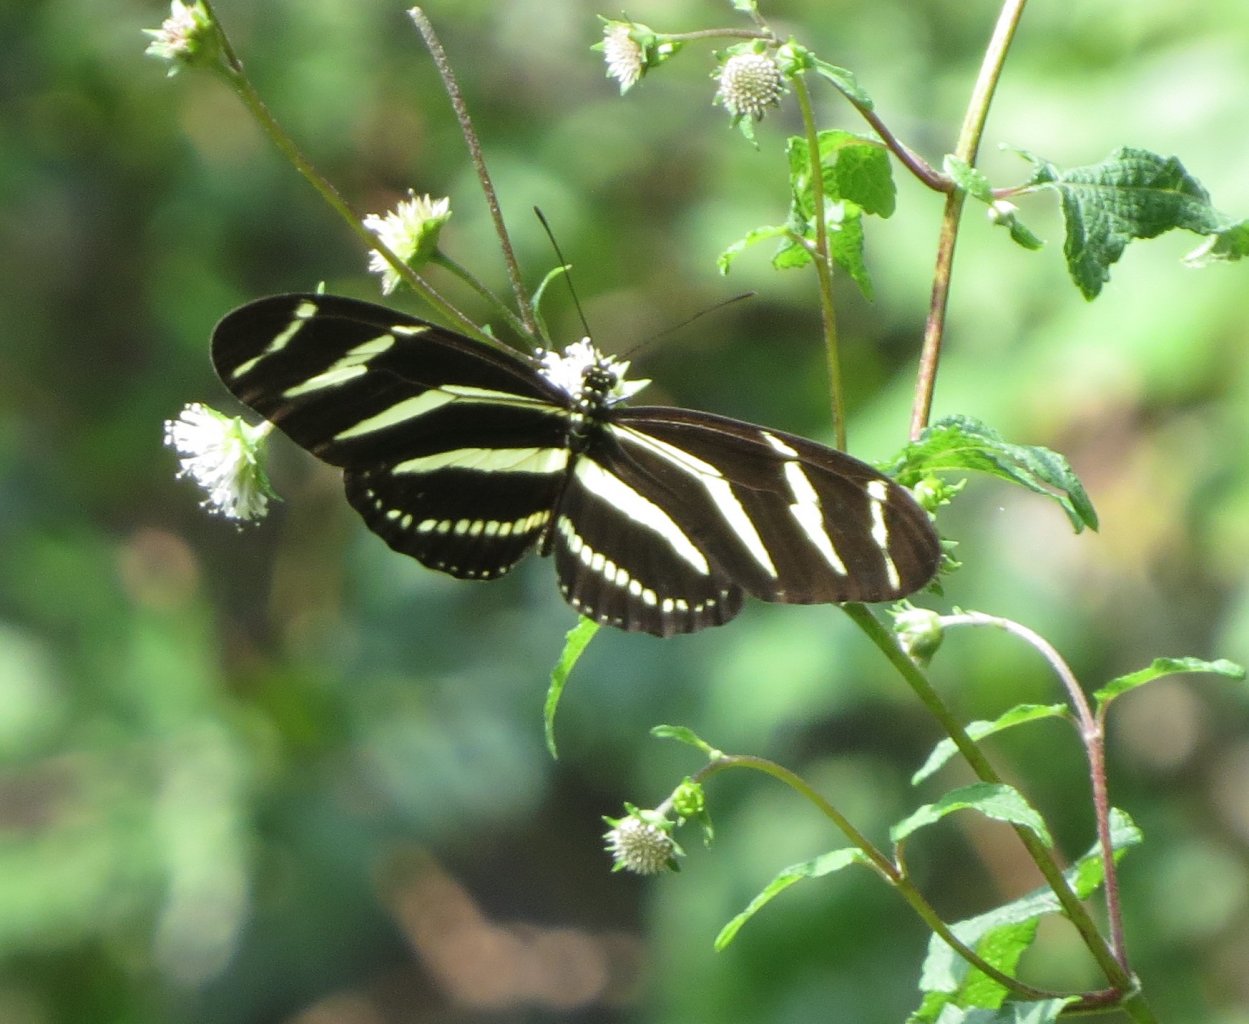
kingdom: Animalia
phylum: Arthropoda
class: Insecta
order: Lepidoptera
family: Nymphalidae
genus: Heliconius
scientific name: Heliconius charithonia
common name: Zebra Longwing
